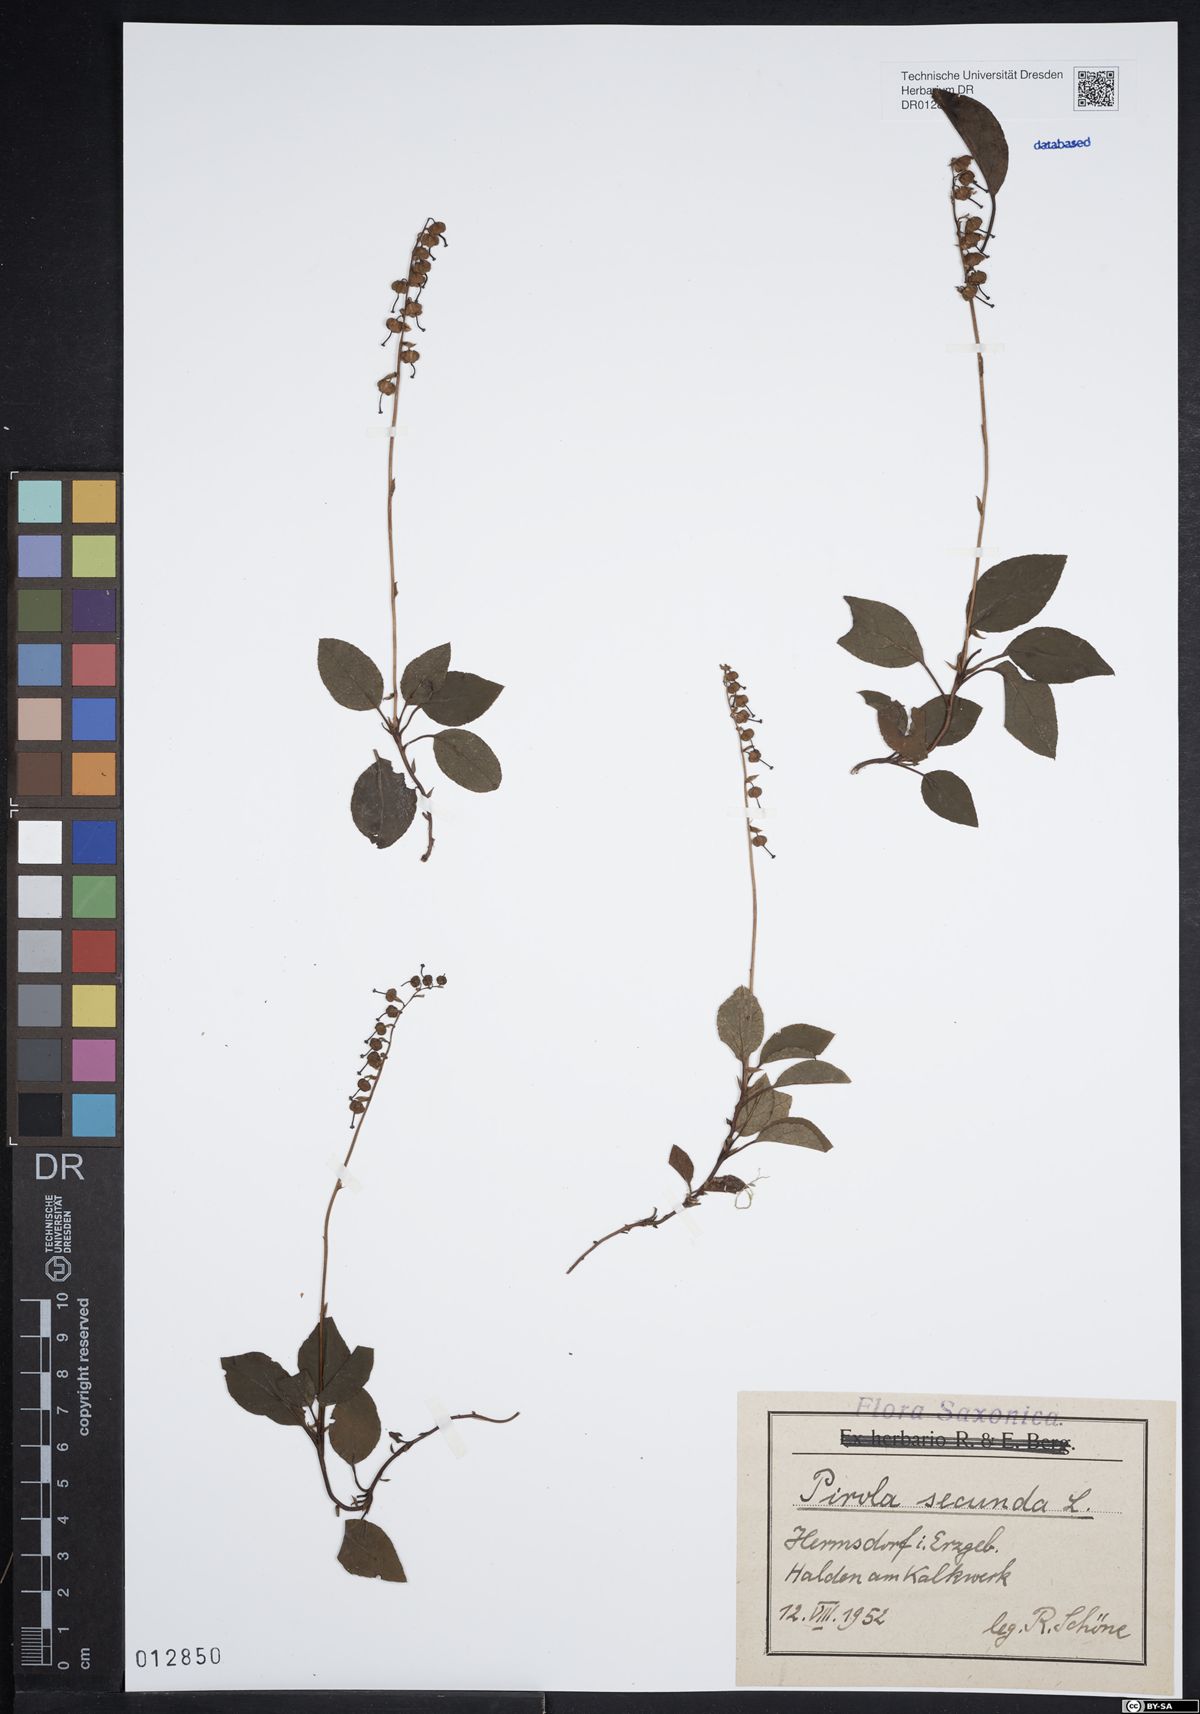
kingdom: Plantae
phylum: Tracheophyta
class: Magnoliopsida
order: Ericales
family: Ericaceae
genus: Orthilia
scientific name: Orthilia secunda
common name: One-sided orthilia
